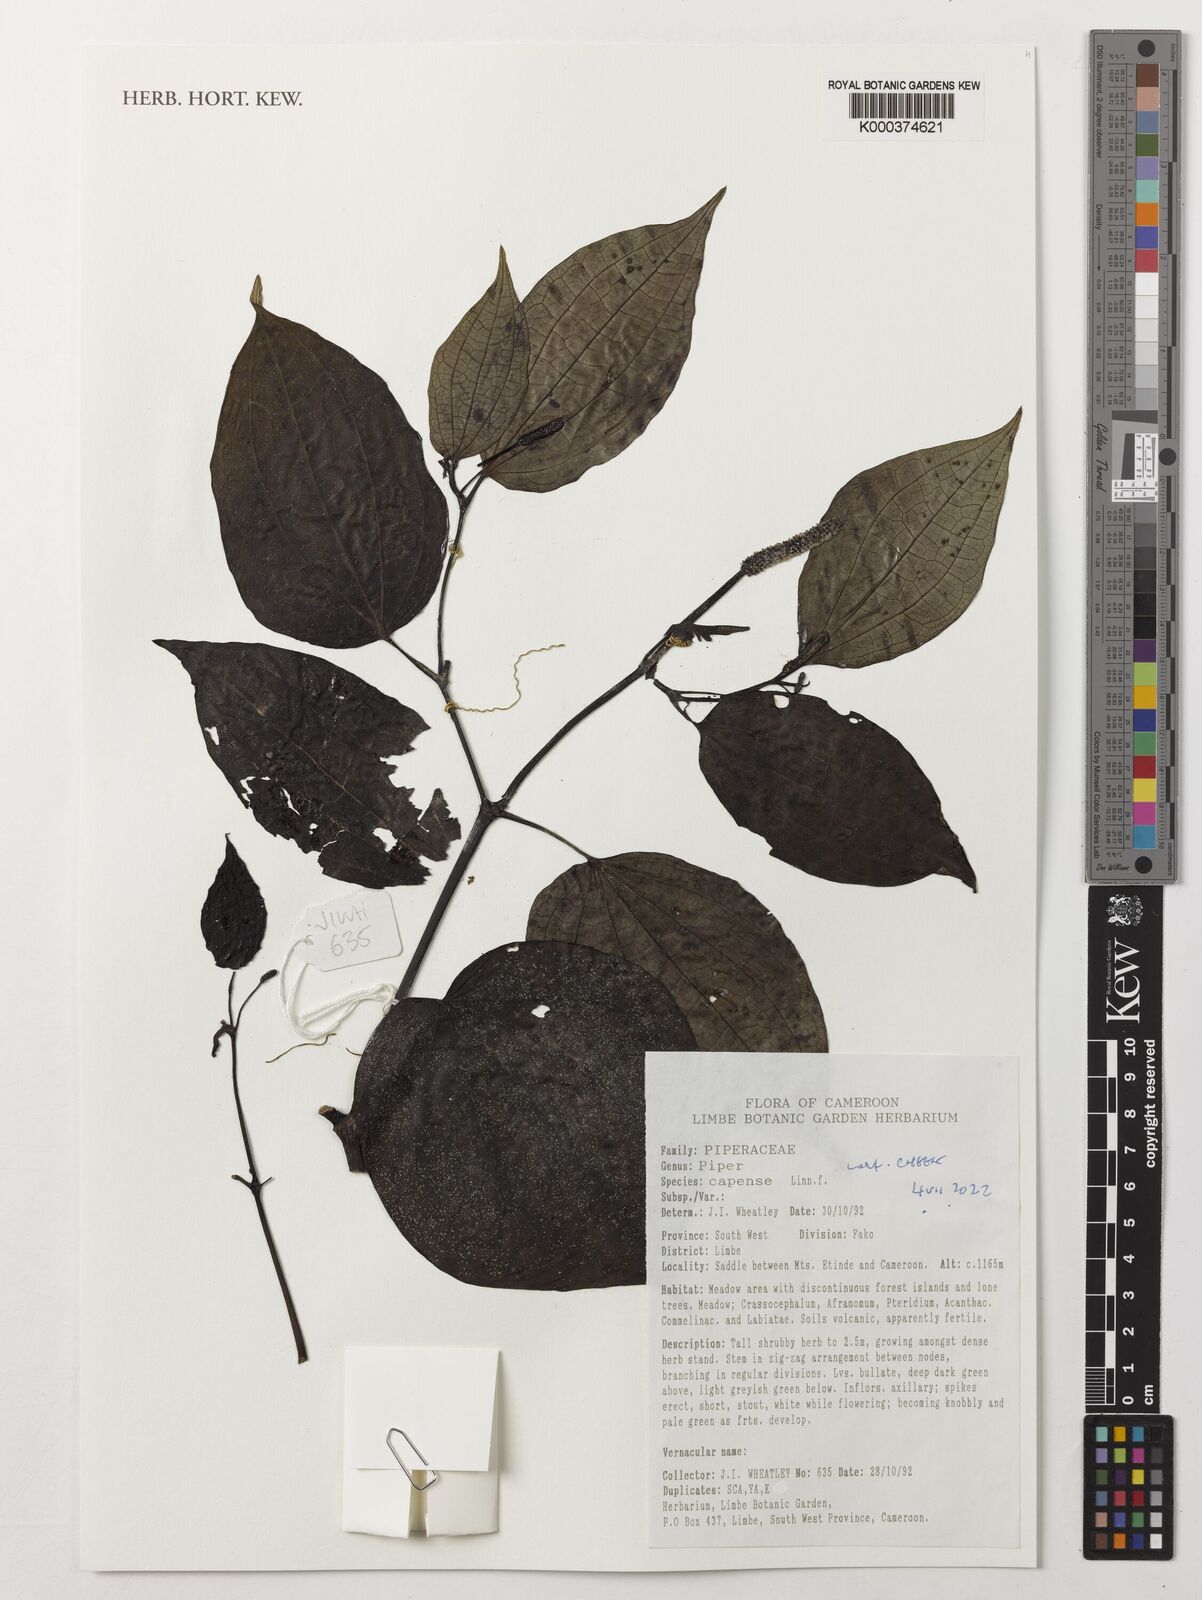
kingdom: Plantae
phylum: Tracheophyta
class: Magnoliopsida
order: Piperales
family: Piperaceae
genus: Piper
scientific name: Piper capense
